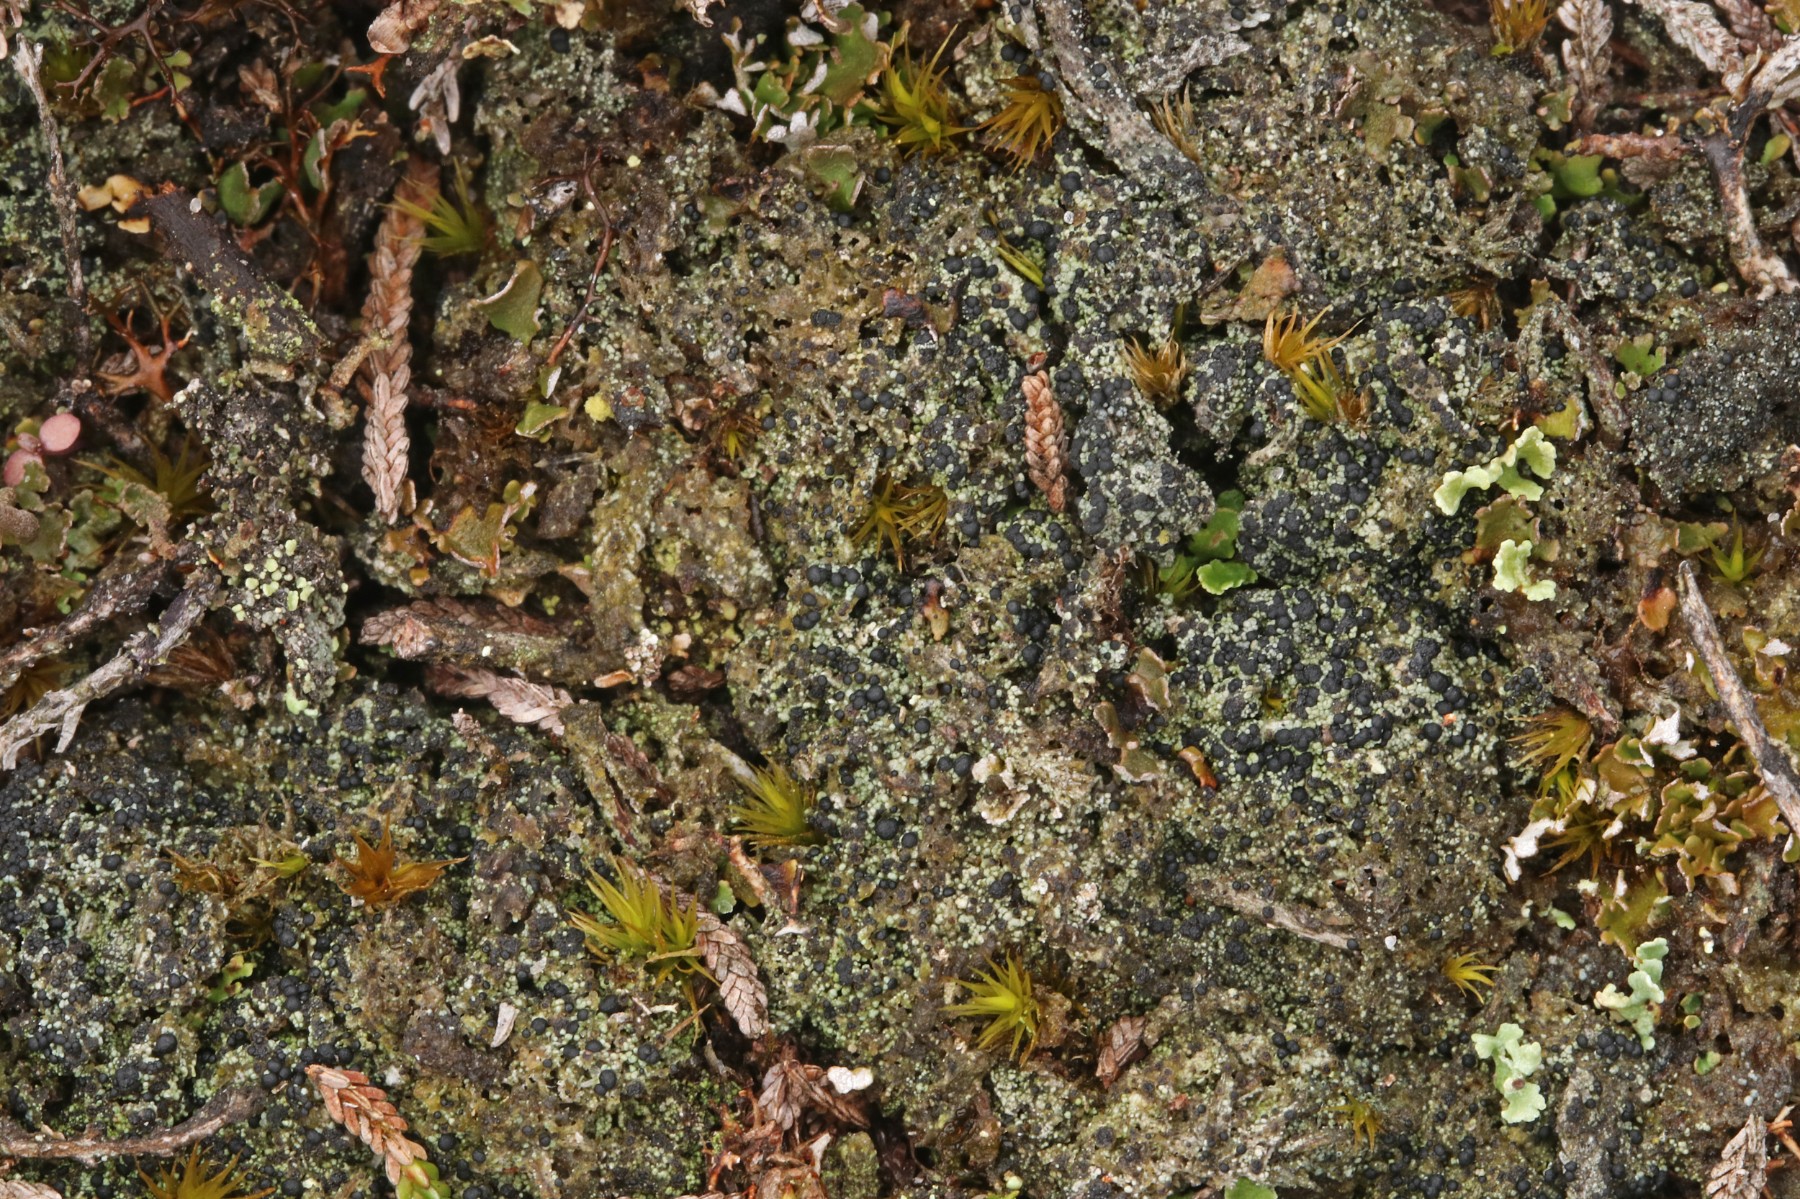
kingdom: Fungi
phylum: Ascomycota
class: Lecanoromycetes
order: Lecanorales
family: Byssolomataceae
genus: Micarea
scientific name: Micarea lignaria
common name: tørve-knaplav
